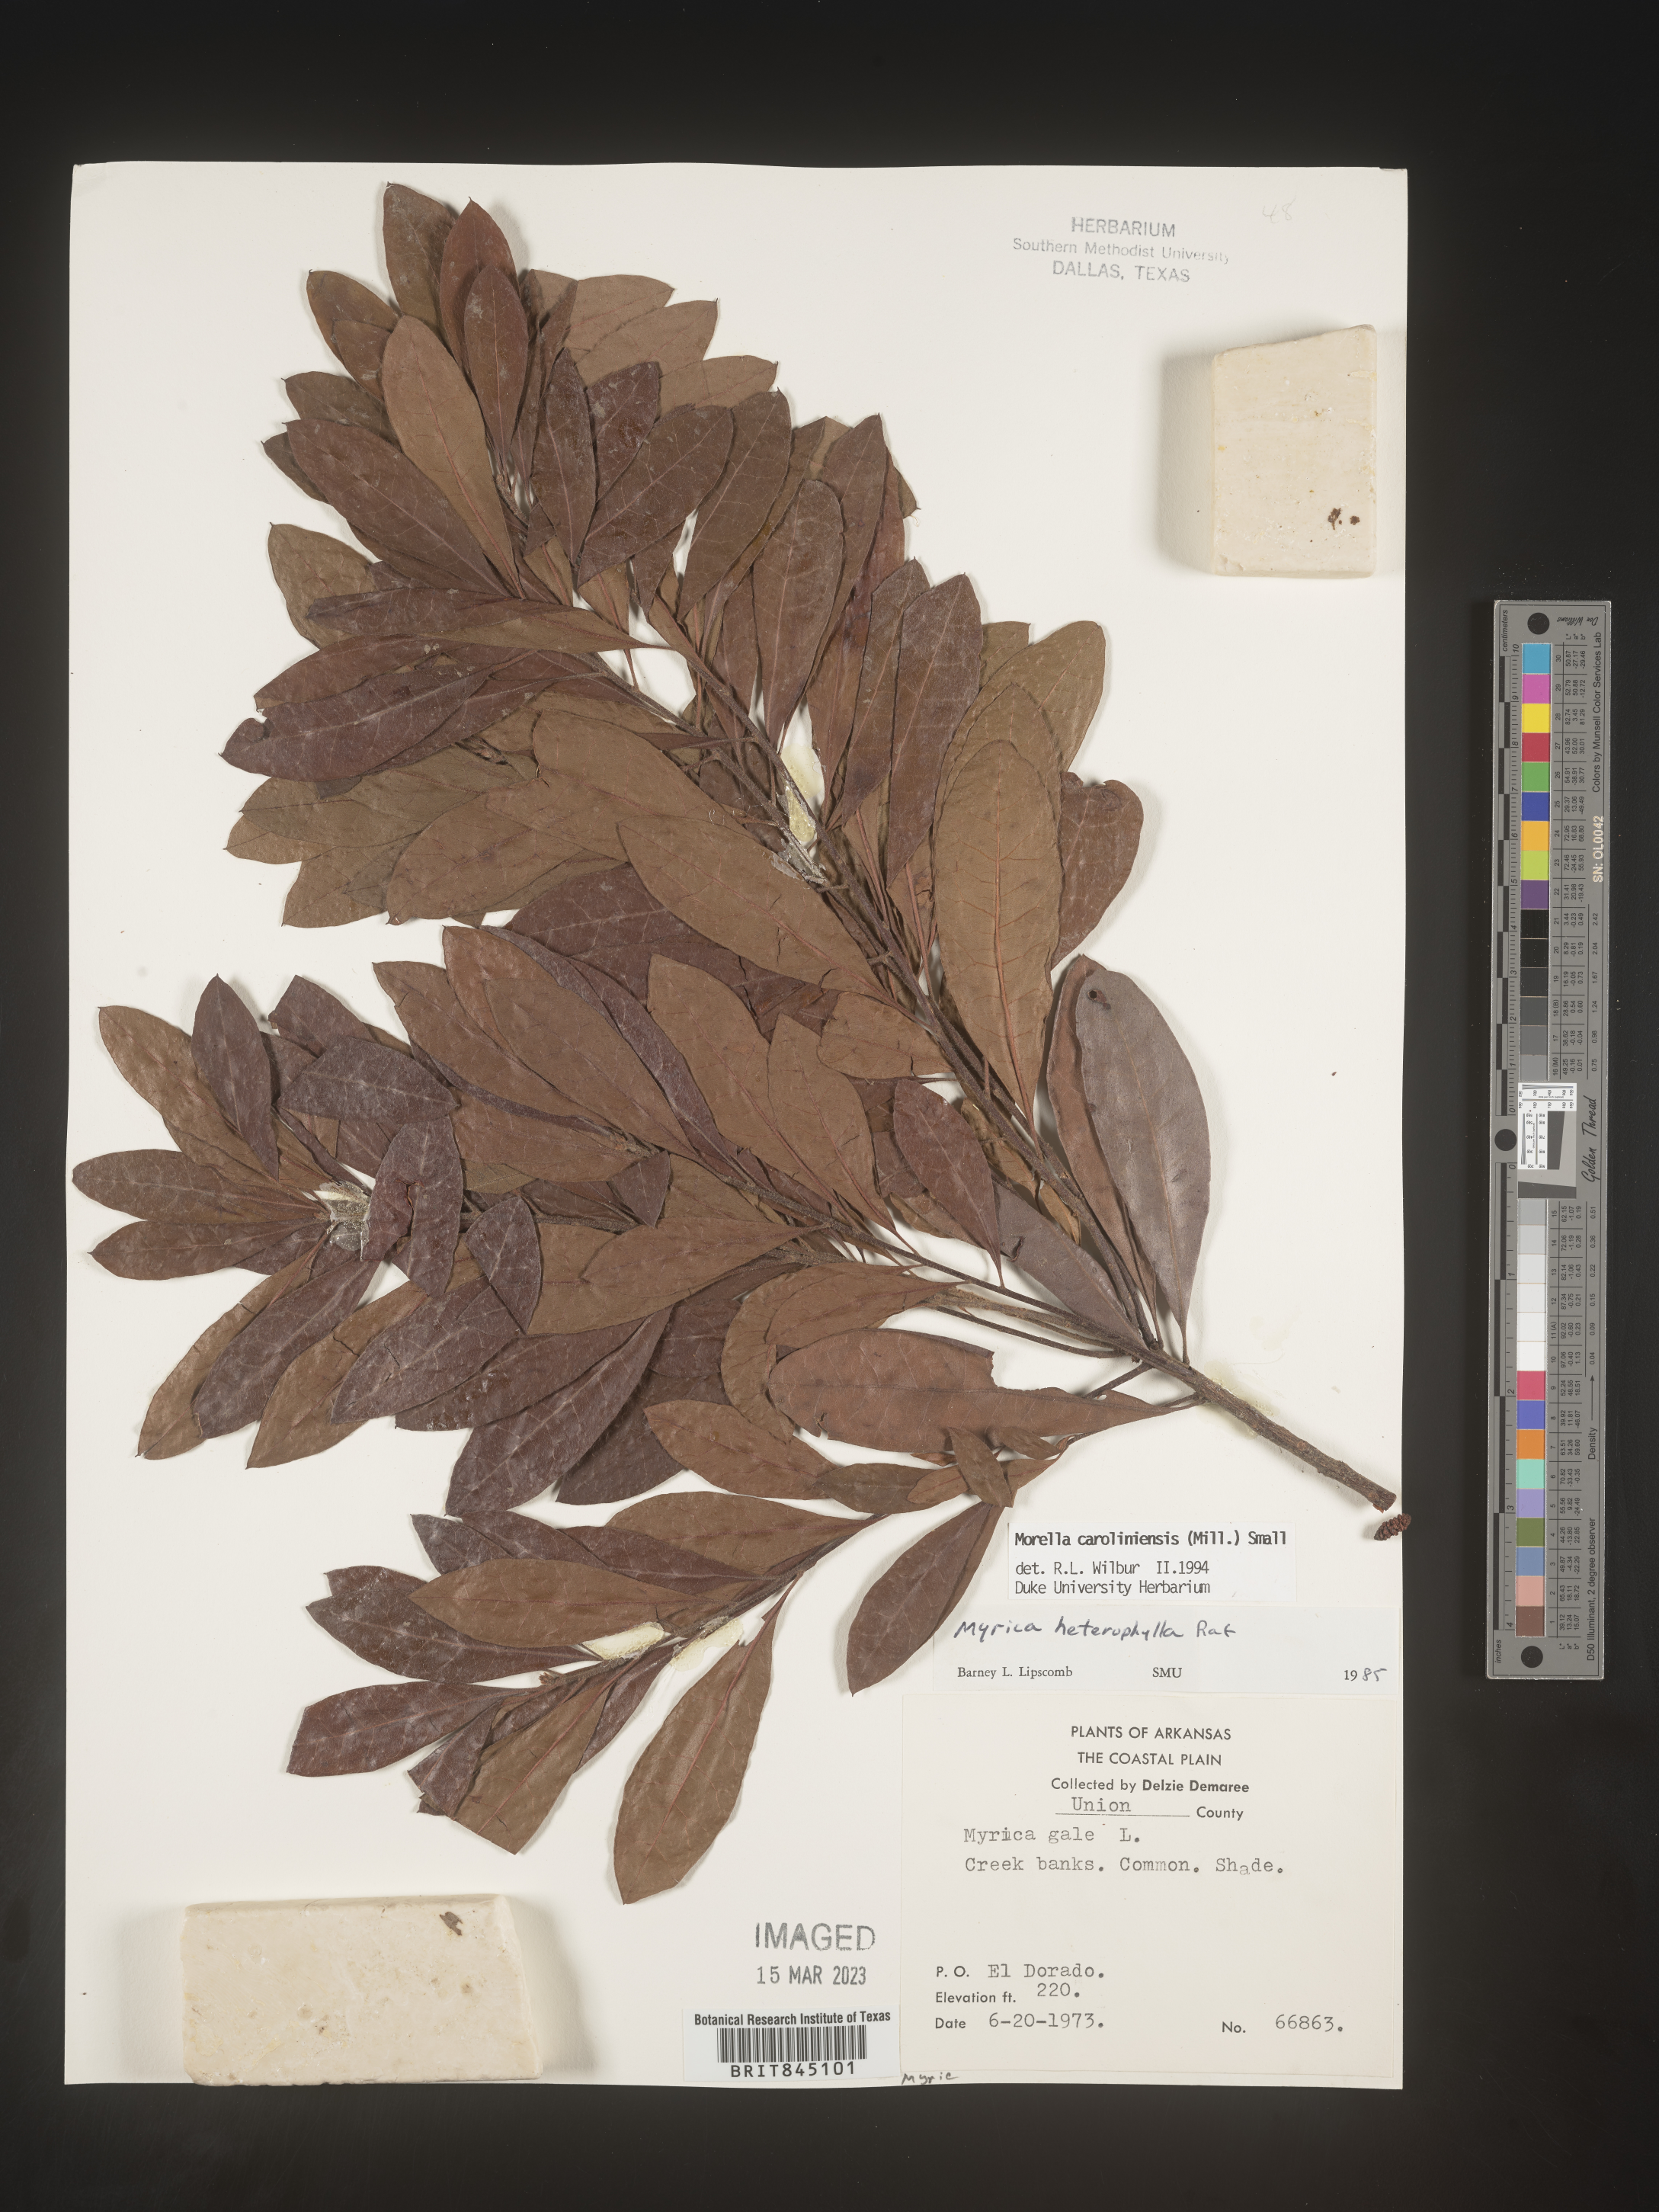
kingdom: Plantae
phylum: Tracheophyta
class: Magnoliopsida
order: Fagales
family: Myricaceae
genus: Morella
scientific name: Morella caroliniensis
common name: Evergreen bayberry
